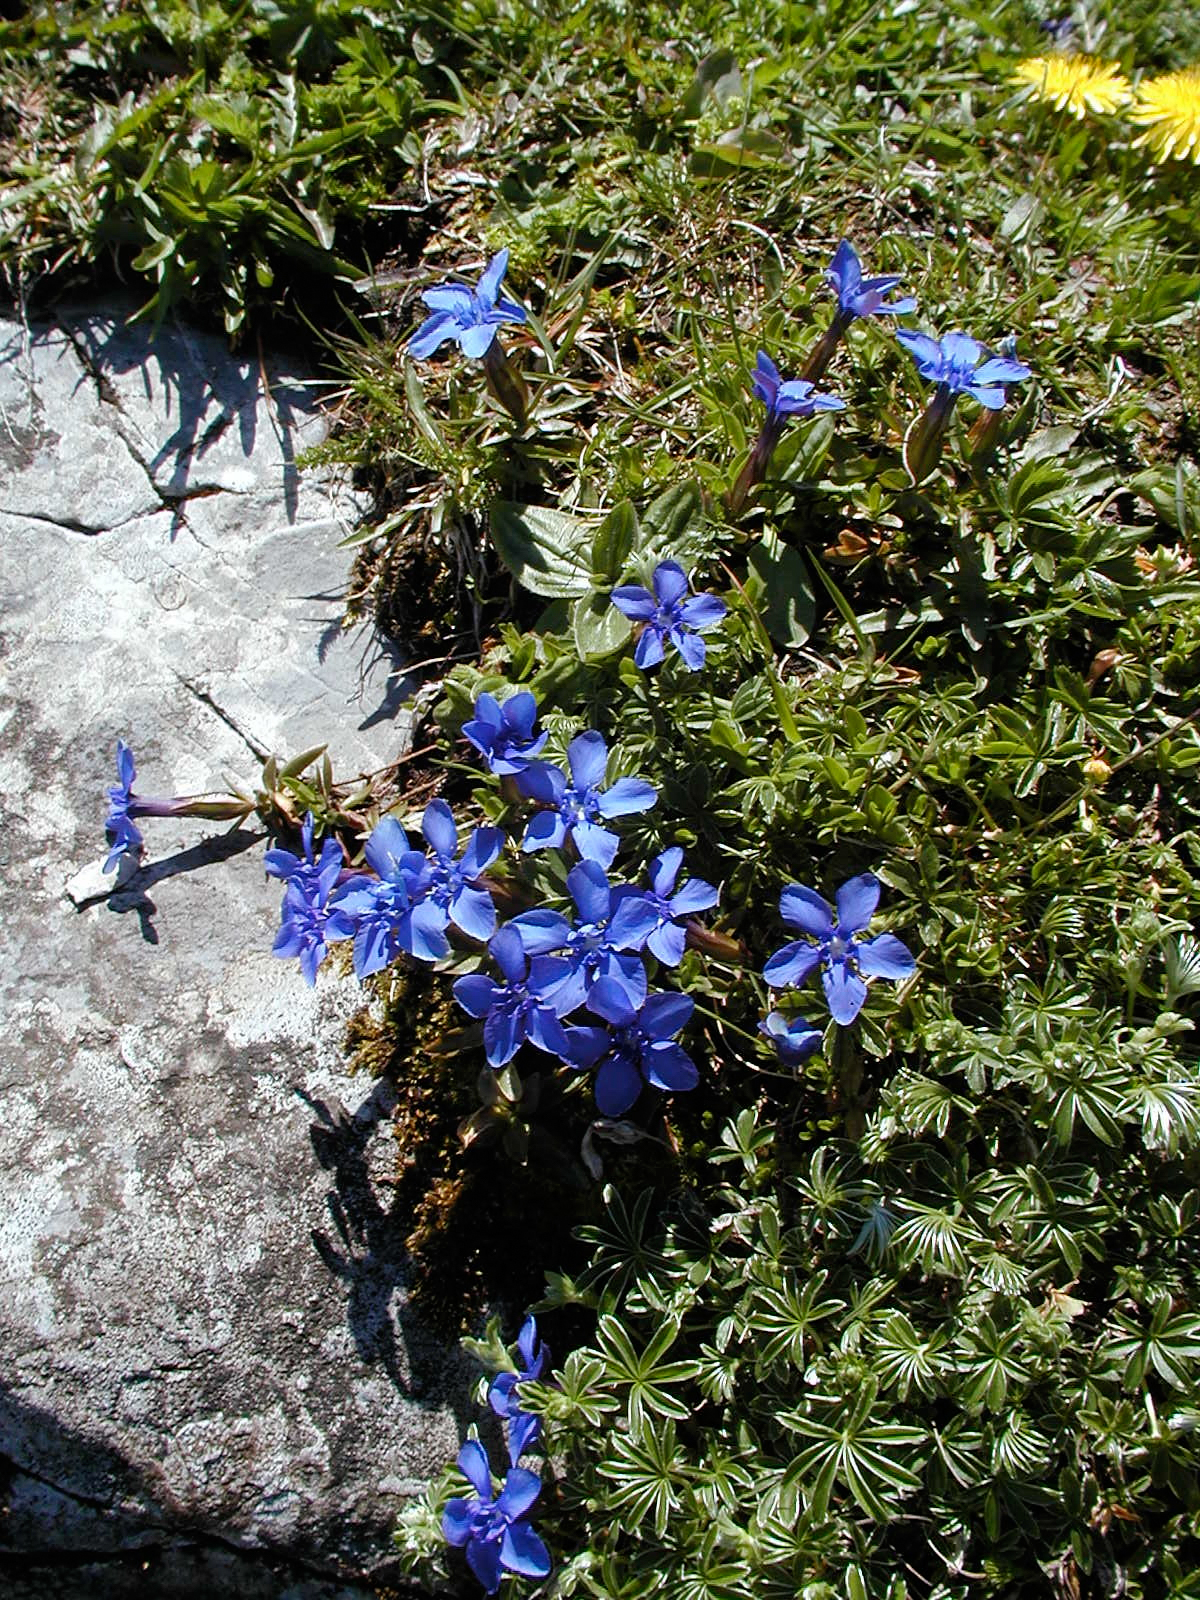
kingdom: Plantae
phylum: Tracheophyta
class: Magnoliopsida
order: Gentianales
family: Gentianaceae
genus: Gentiana
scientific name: Gentiana verna
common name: Spring gentian
